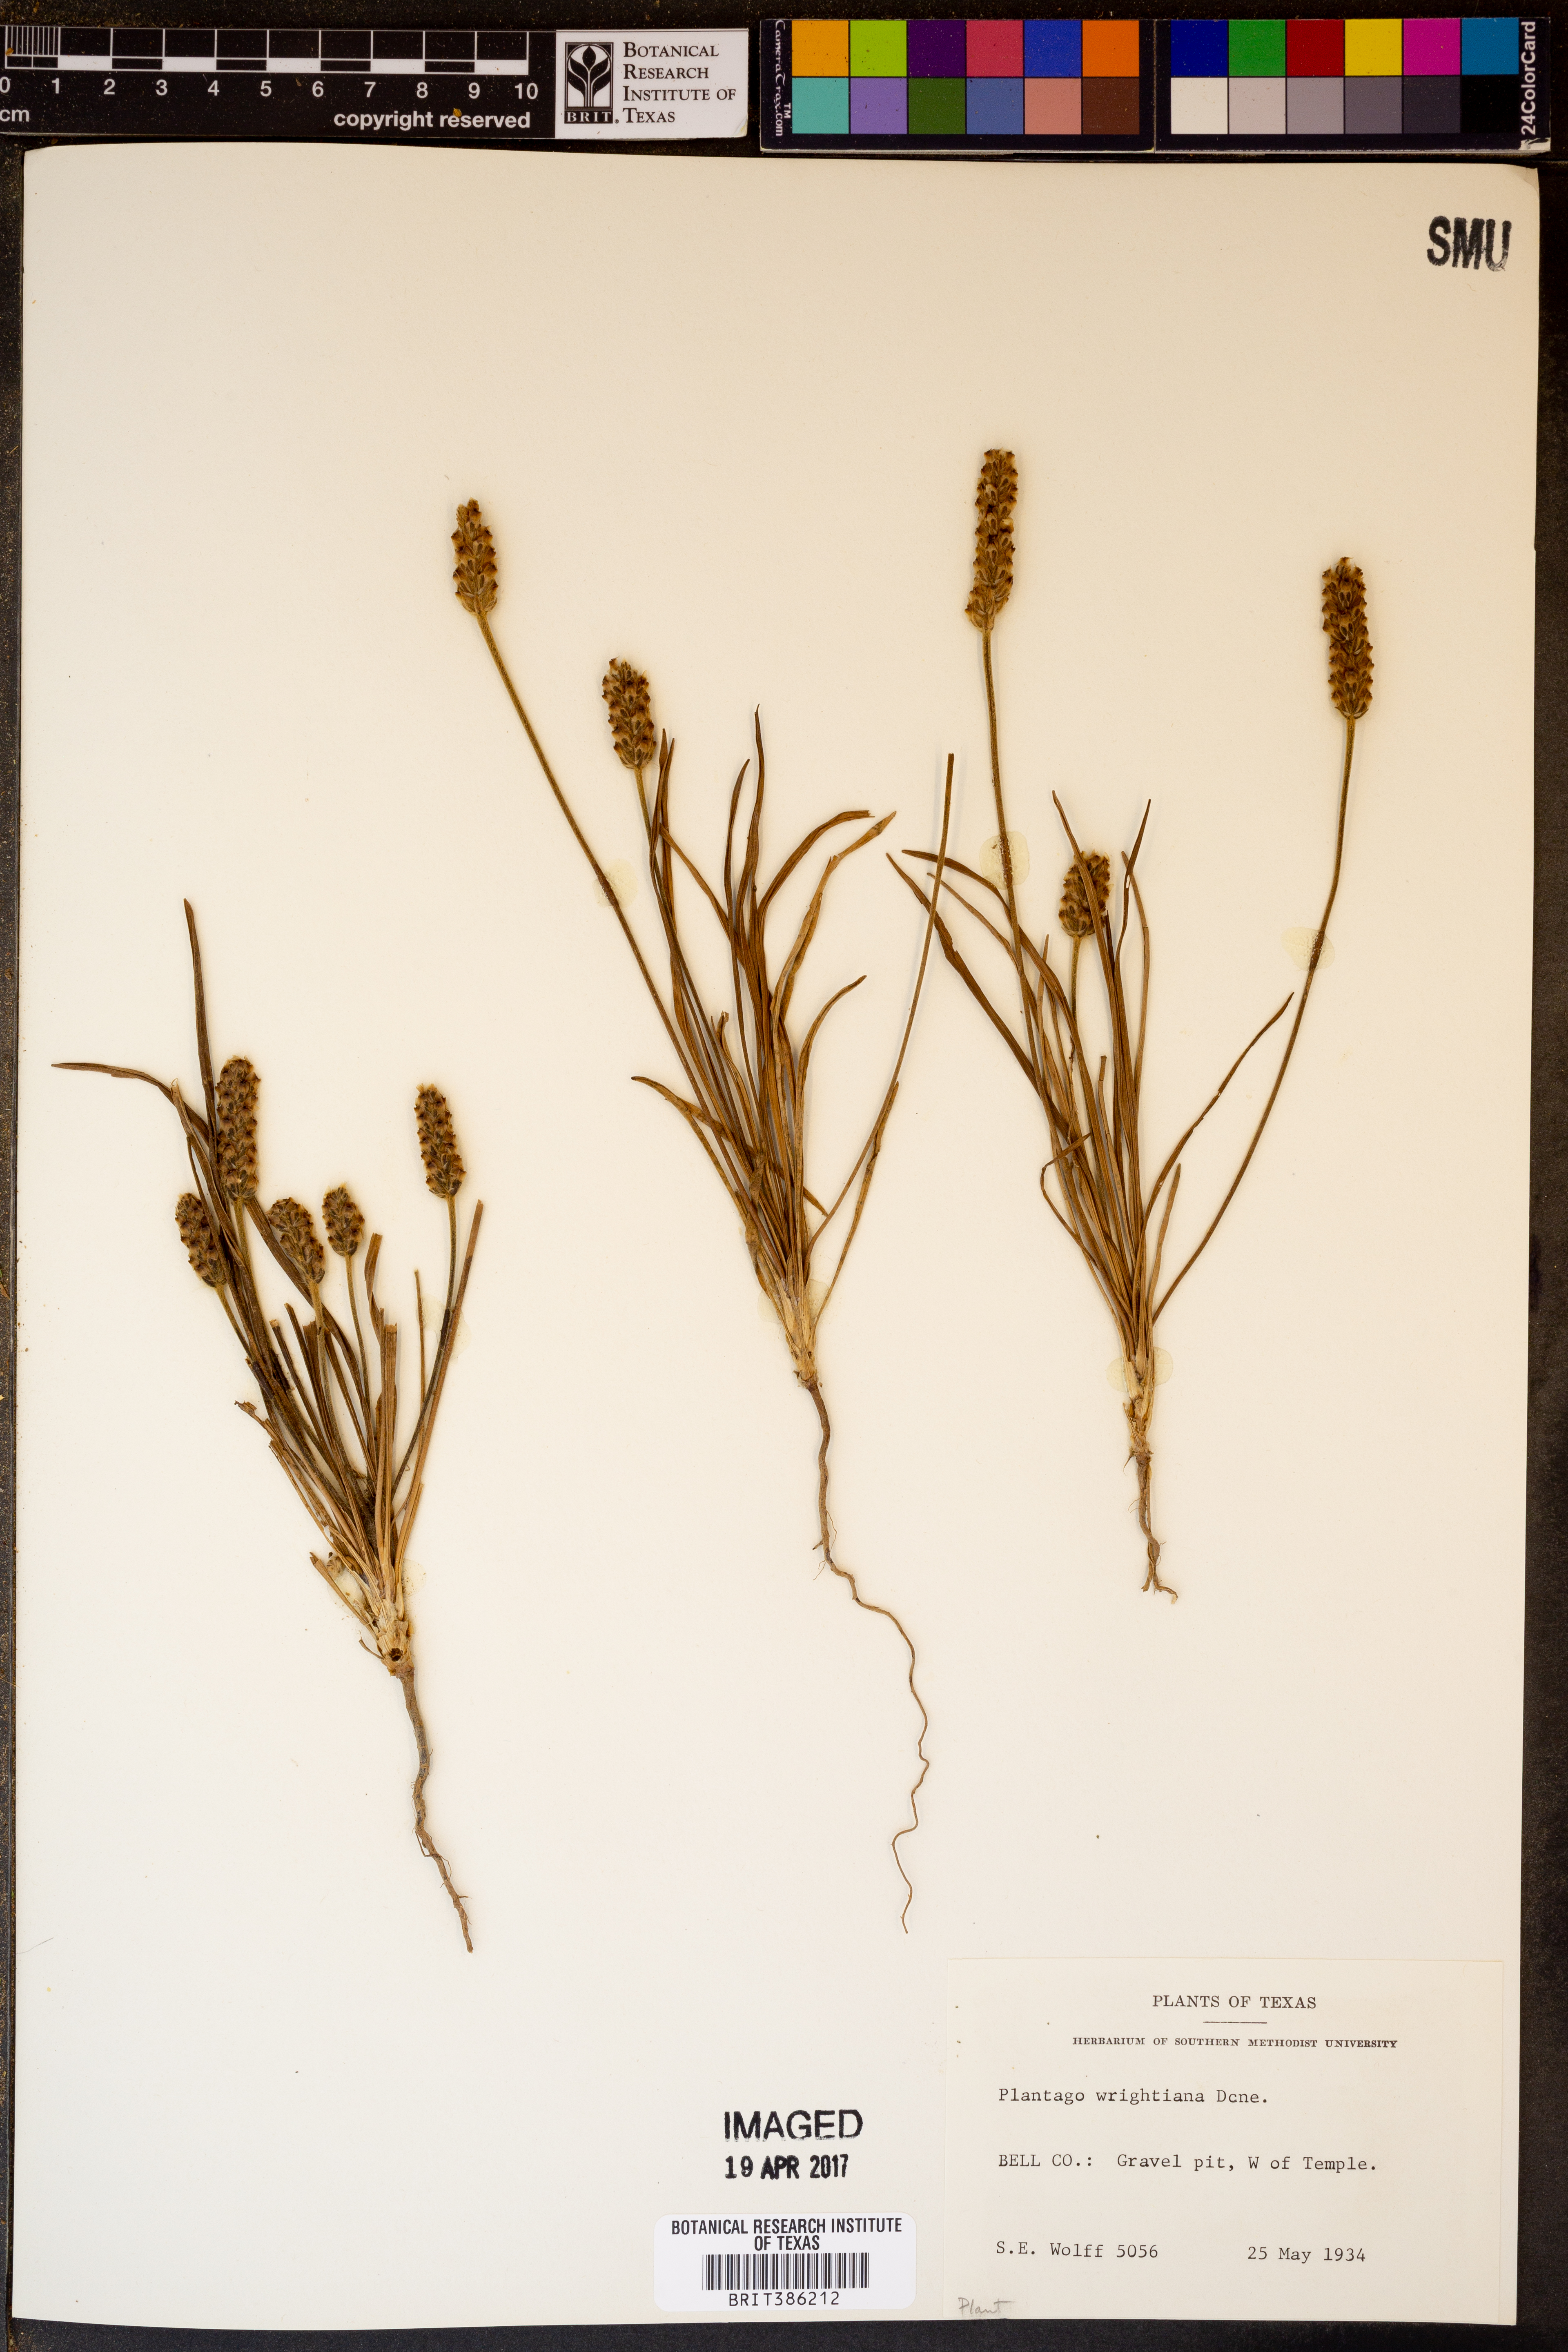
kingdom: Plantae
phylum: Tracheophyta
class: Magnoliopsida
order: Lamiales
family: Plantaginaceae
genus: Plantago
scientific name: Plantago wrightiana
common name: Wright's plantain
